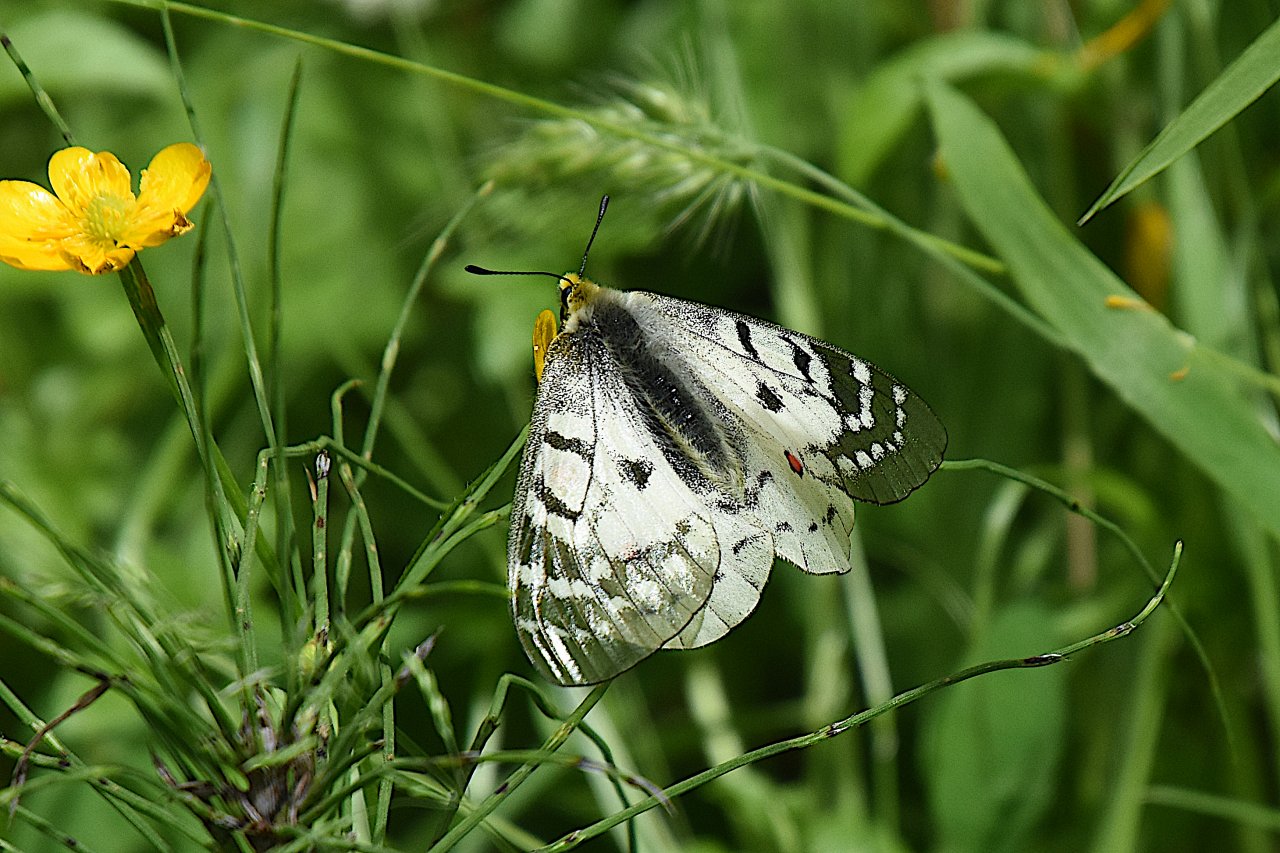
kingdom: Animalia
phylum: Arthropoda
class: Insecta
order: Lepidoptera
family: Papilionidae
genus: Parnassius
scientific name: Parnassius clodius
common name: Clodius Parnassian
